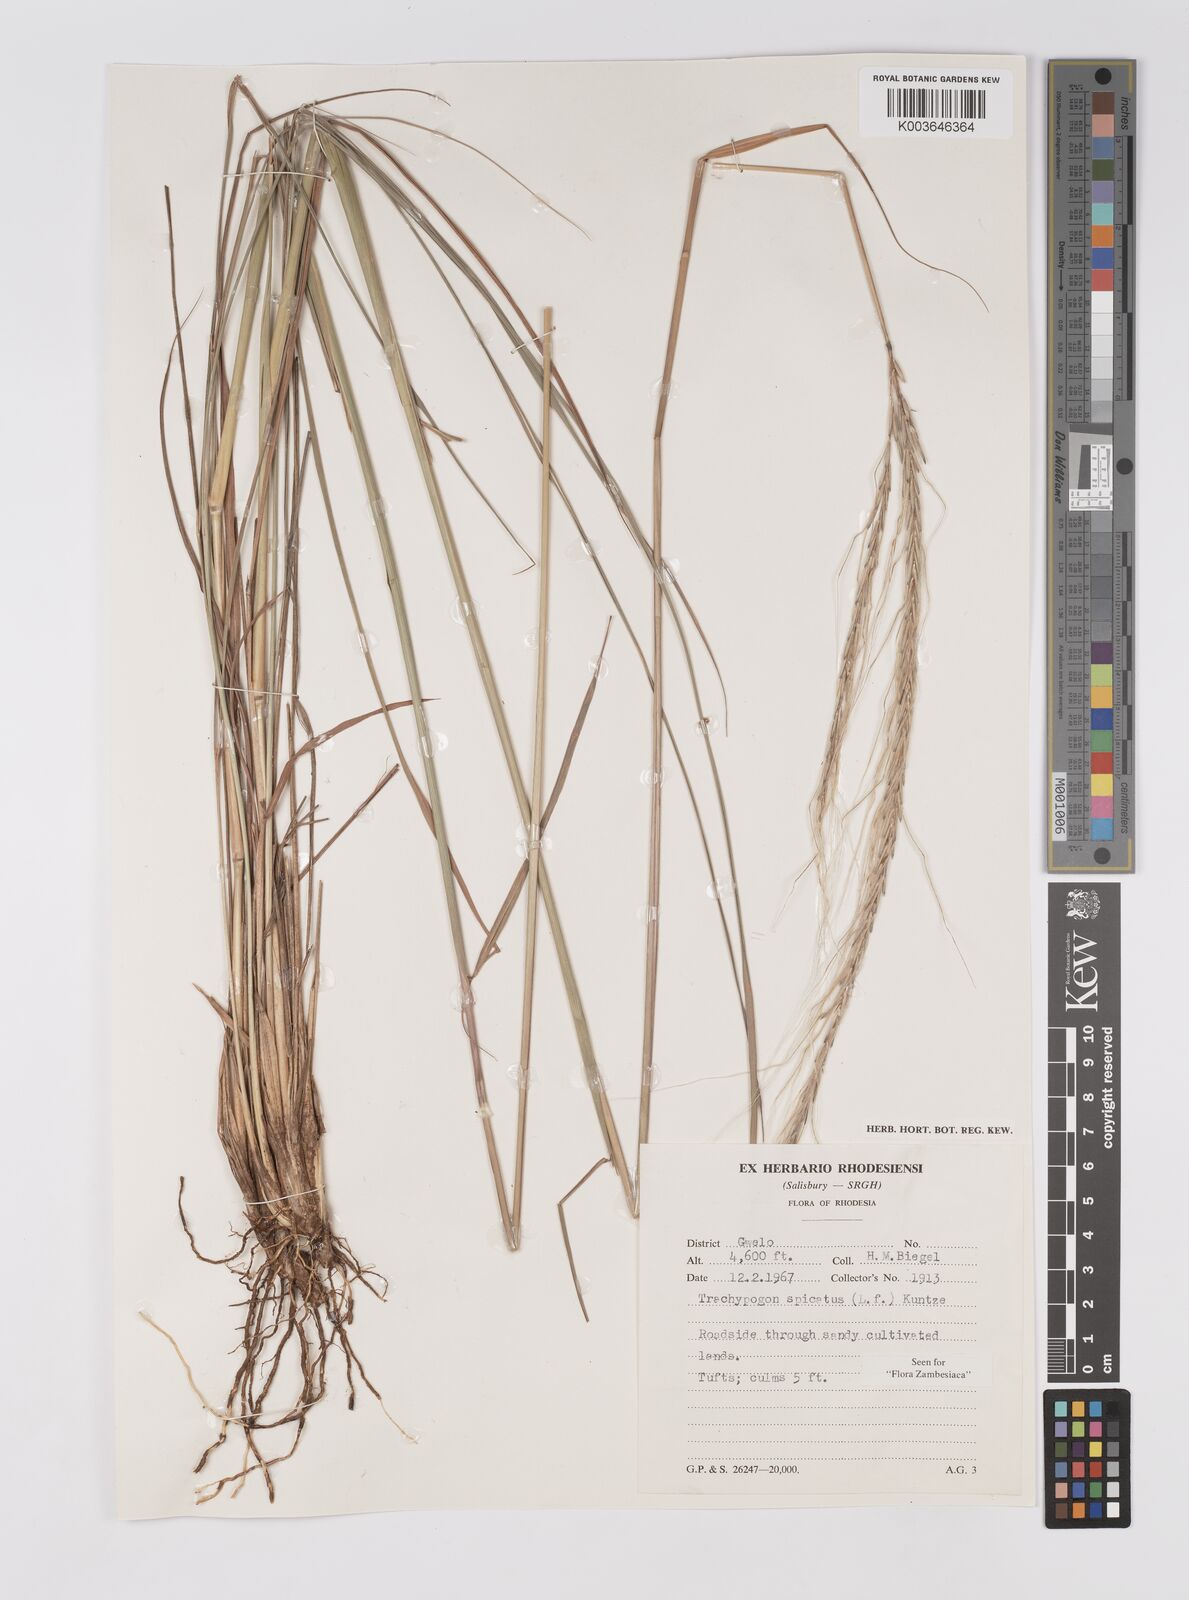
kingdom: Plantae
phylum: Tracheophyta
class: Liliopsida
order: Poales
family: Poaceae
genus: Trachypogon
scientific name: Trachypogon spicatus
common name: Crinkle-awn
